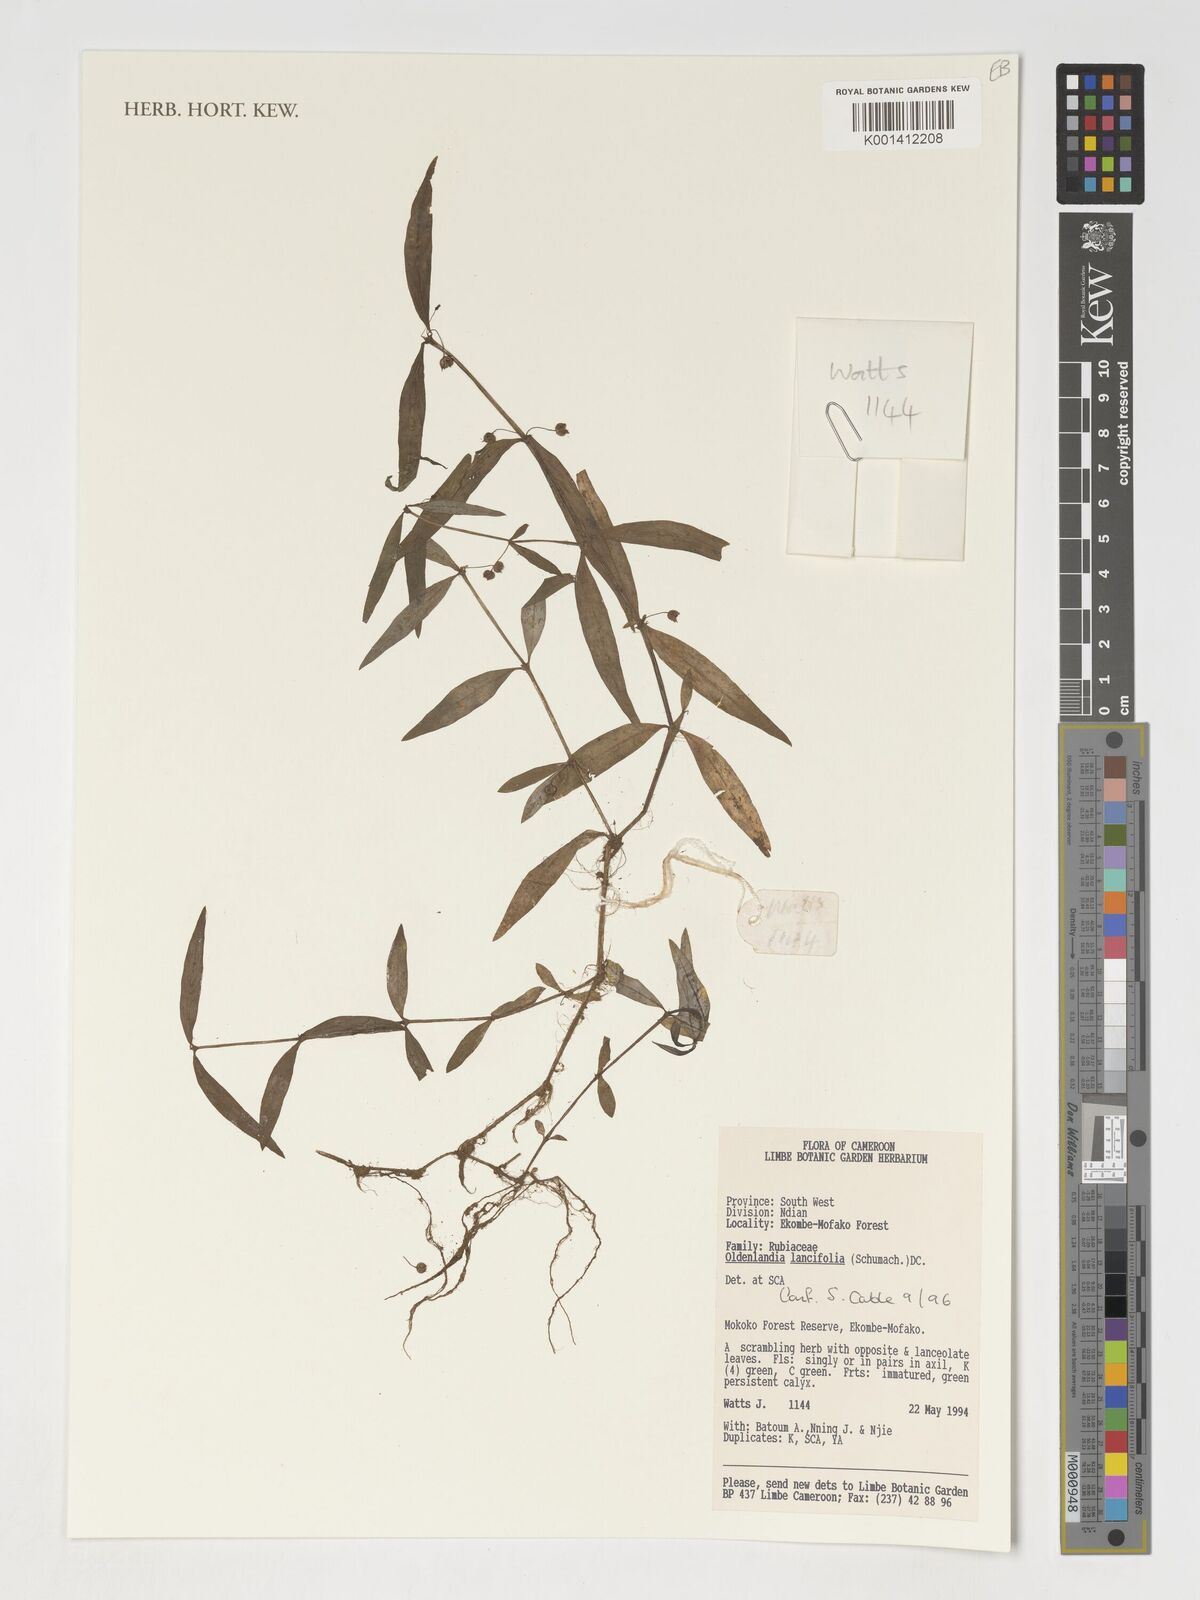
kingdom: Plantae
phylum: Tracheophyta
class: Magnoliopsida
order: Gentianales
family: Rubiaceae
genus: Oldenlandia
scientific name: Oldenlandia lancifolia
